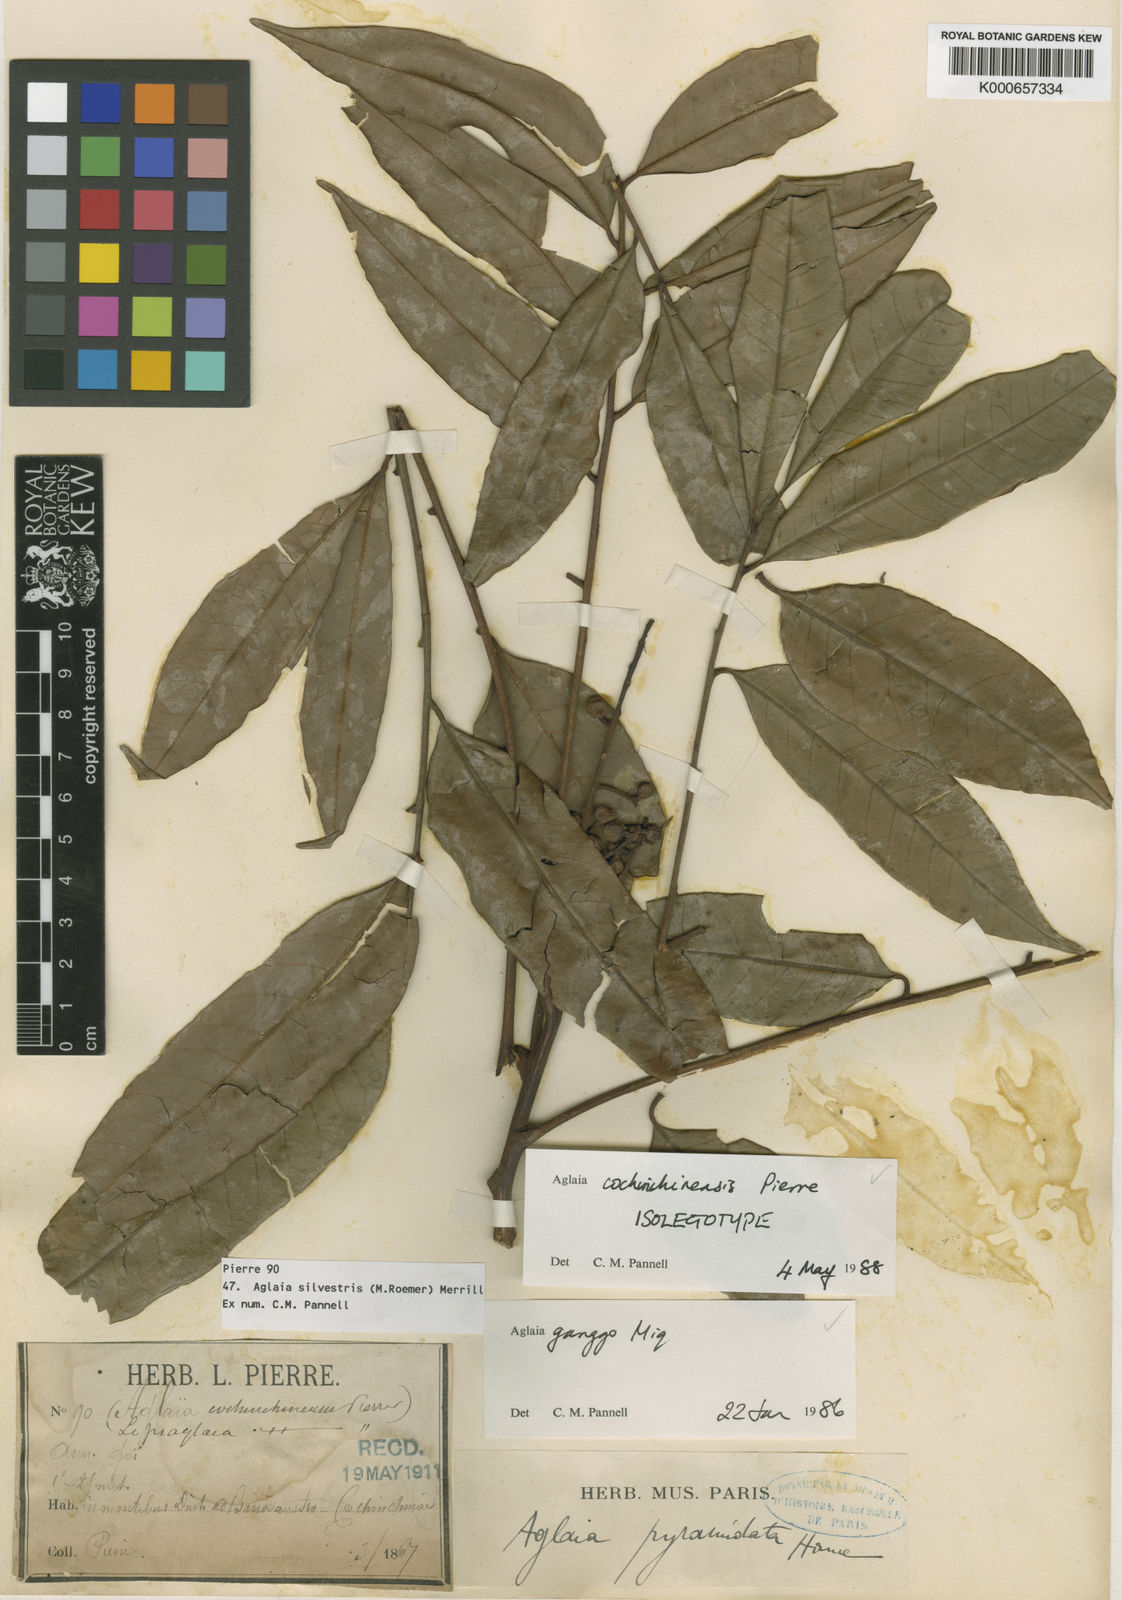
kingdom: Plantae
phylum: Tracheophyta
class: Magnoliopsida
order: Sapindales
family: Meliaceae
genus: Aglaia
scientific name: Aglaia silvestris
